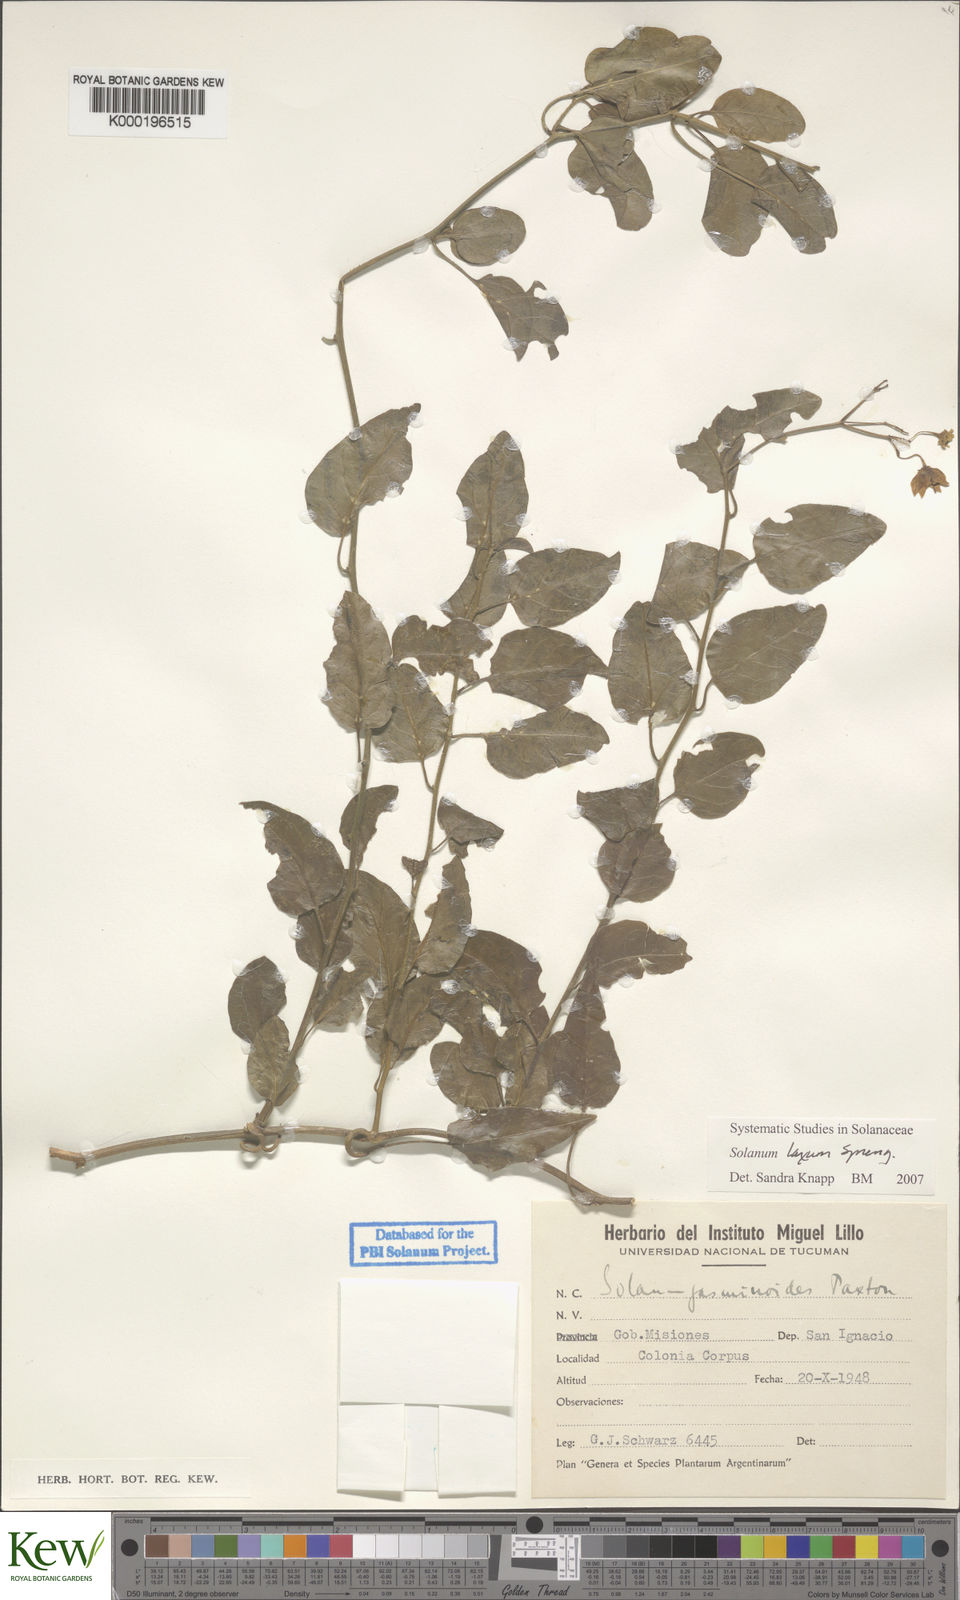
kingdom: Plantae
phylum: Tracheophyta
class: Magnoliopsida
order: Solanales
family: Solanaceae
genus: Solanum
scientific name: Solanum laxum
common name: Nightshade
